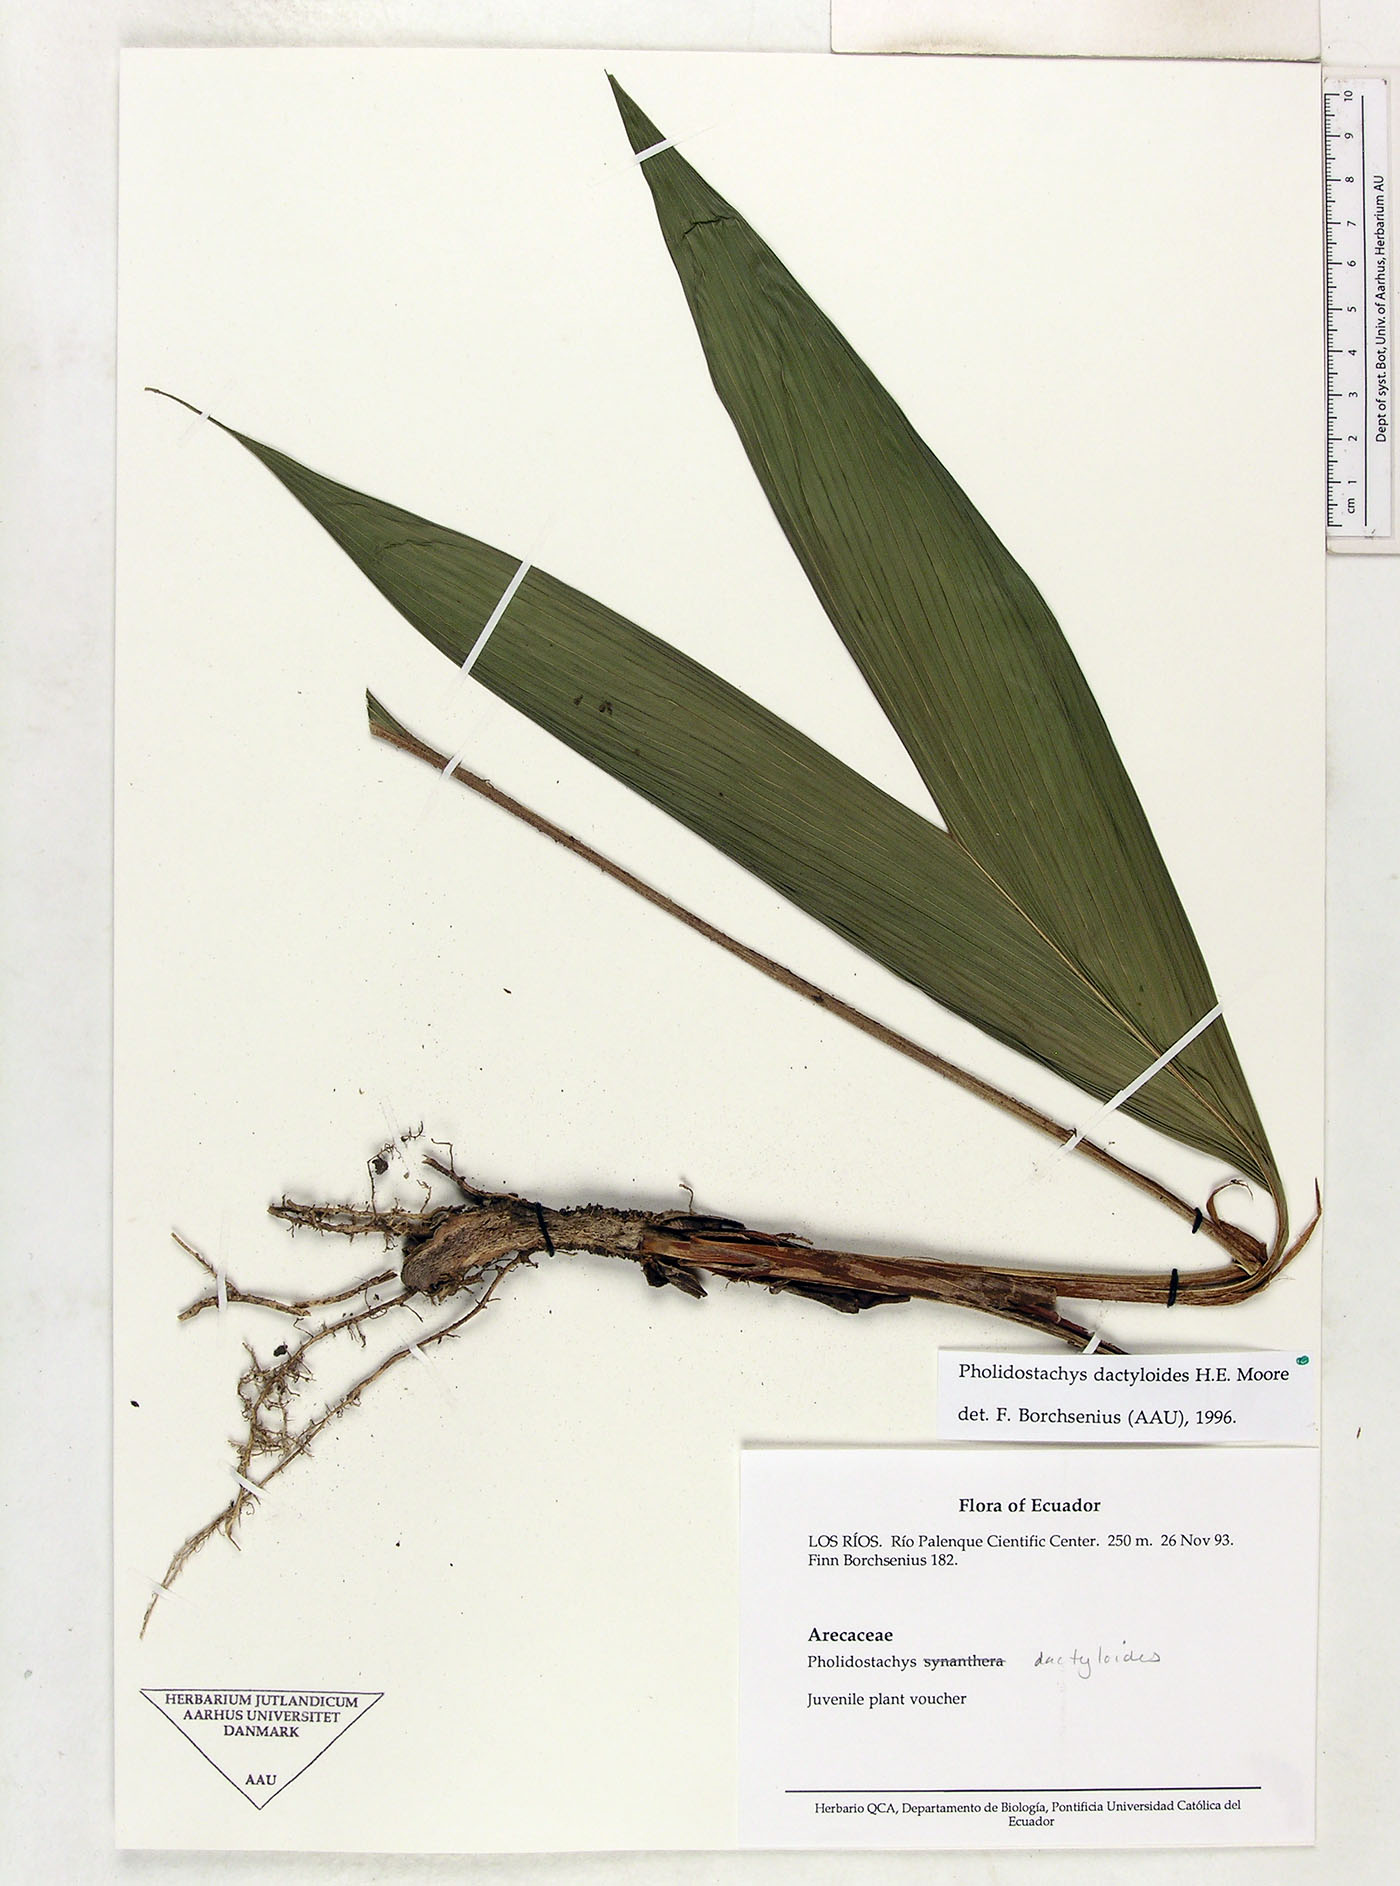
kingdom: Plantae
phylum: Tracheophyta
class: Liliopsida
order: Arecales
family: Arecaceae
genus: Pholidostachys
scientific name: Pholidostachys dactyloides
